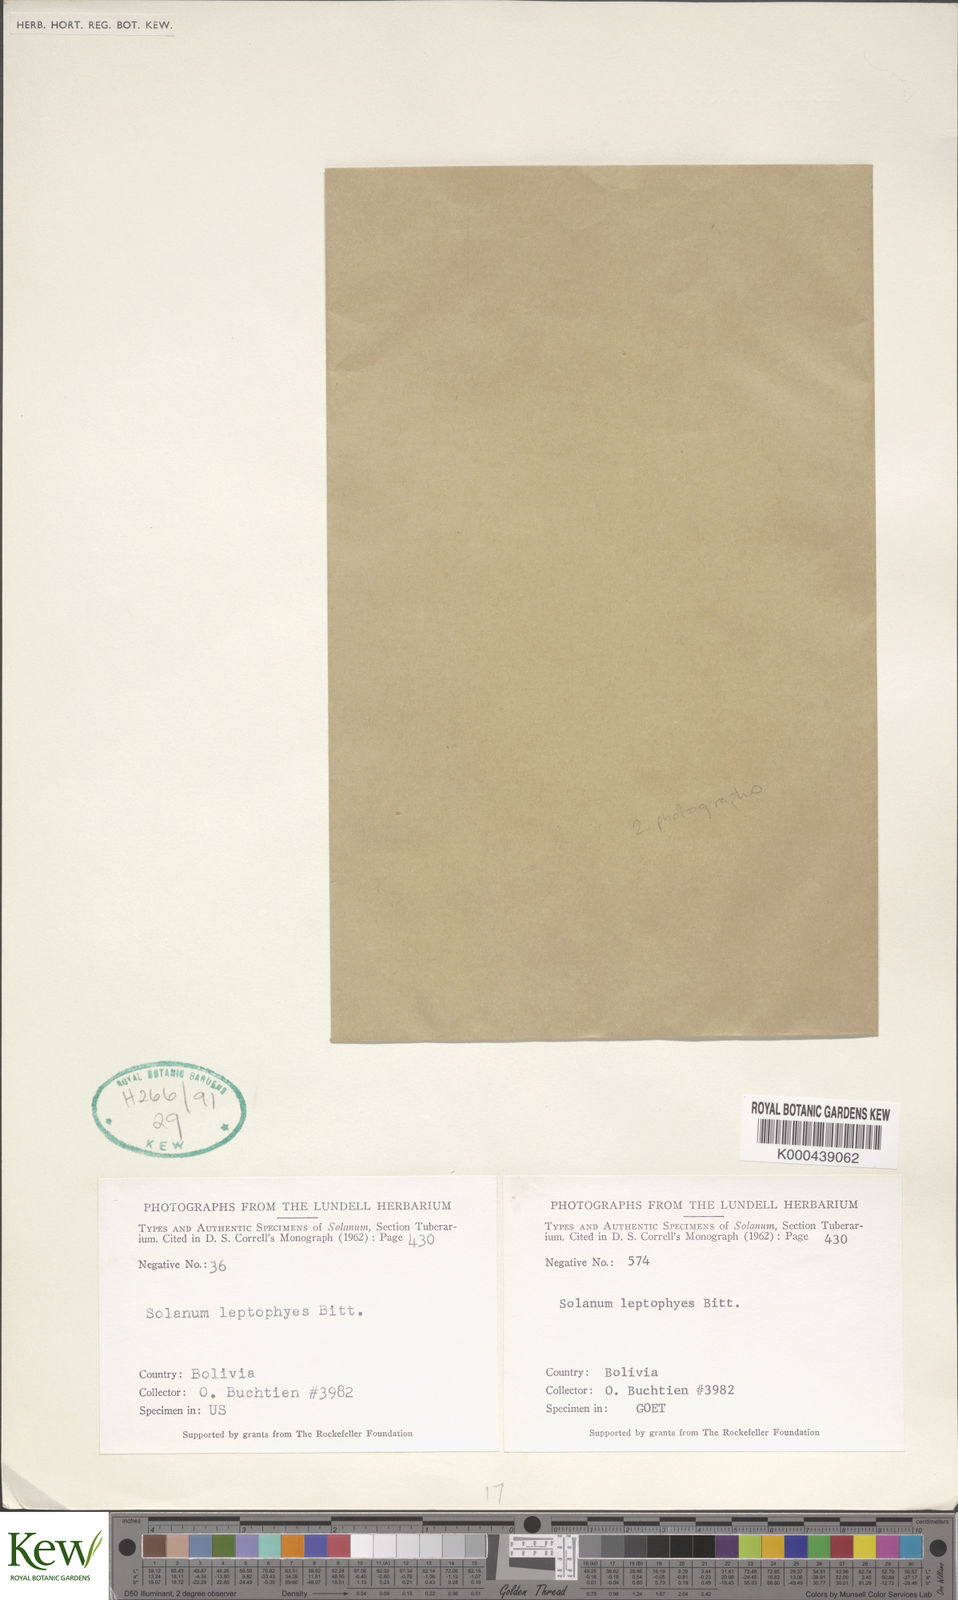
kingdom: Plantae
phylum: Tracheophyta
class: Magnoliopsida
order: Solanales
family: Solanaceae
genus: Solanum
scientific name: Solanum brevicaule
